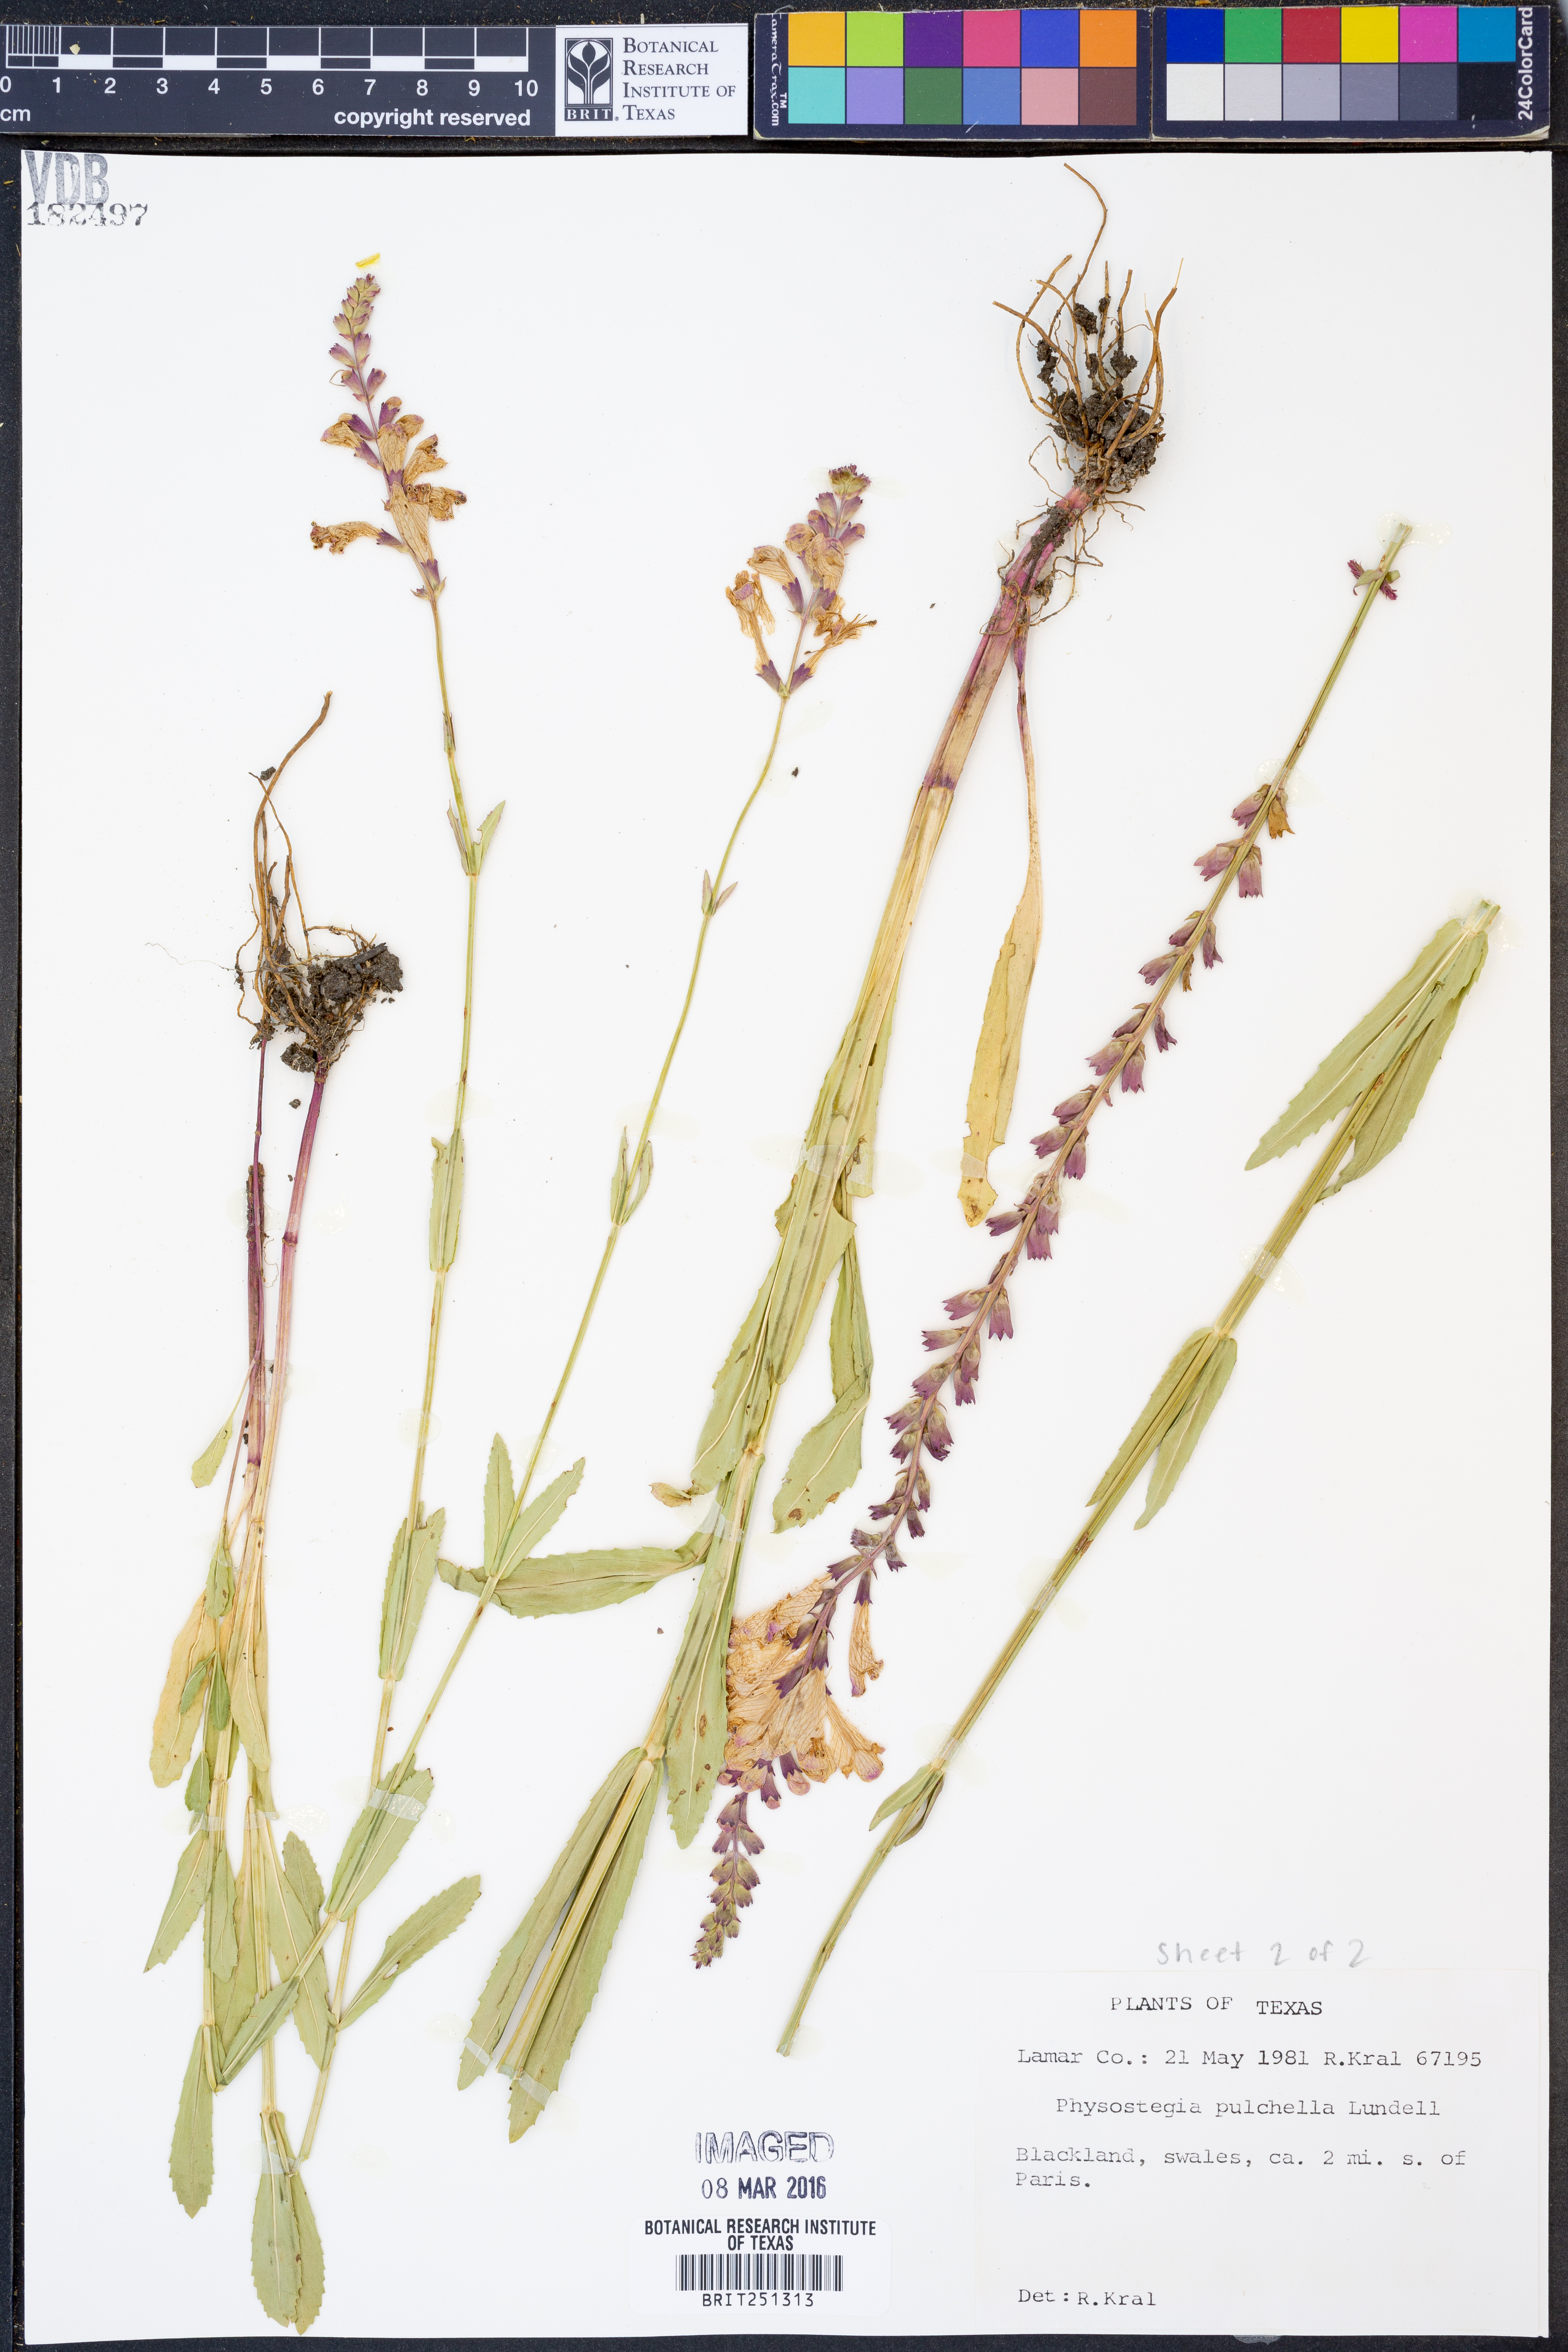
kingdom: Plantae
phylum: Tracheophyta
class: Magnoliopsida
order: Lamiales
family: Lamiaceae
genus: Physostegia
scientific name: Physostegia pulchella
